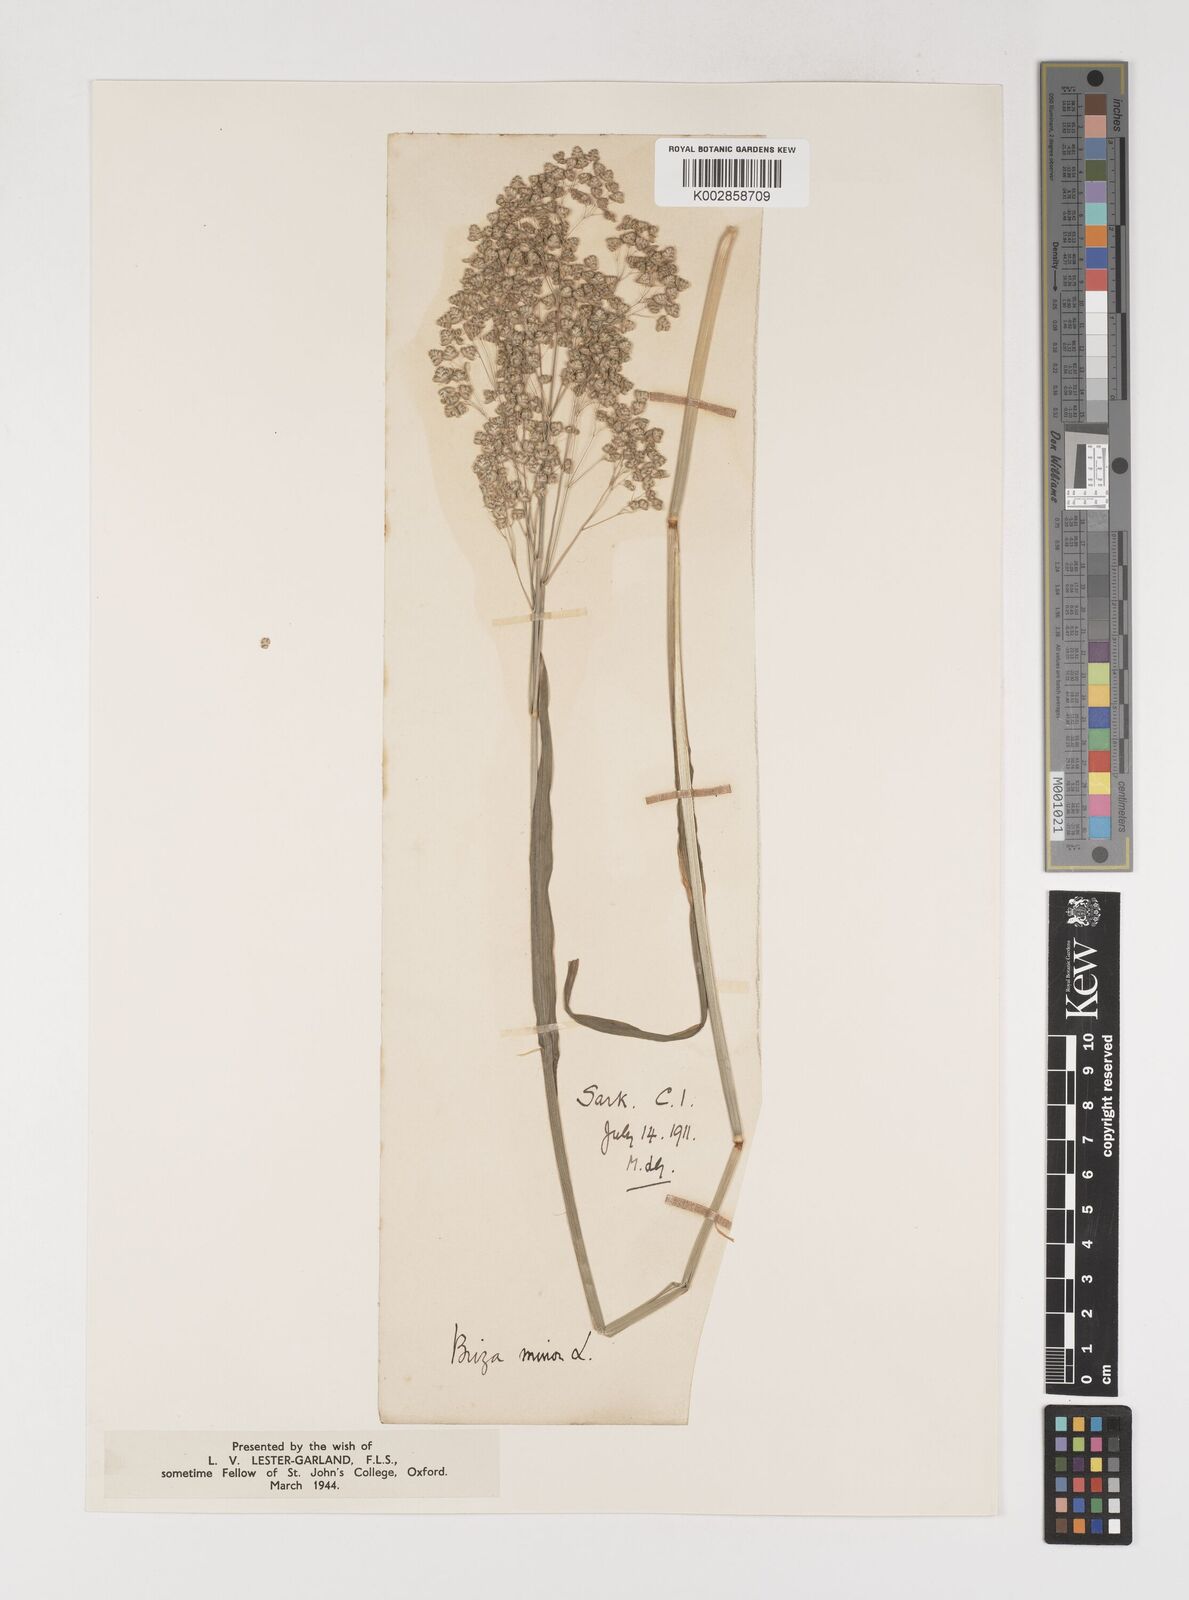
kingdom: Plantae
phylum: Tracheophyta
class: Liliopsida
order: Poales
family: Poaceae
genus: Briza
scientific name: Briza minor
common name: Lesser quaking-grass
